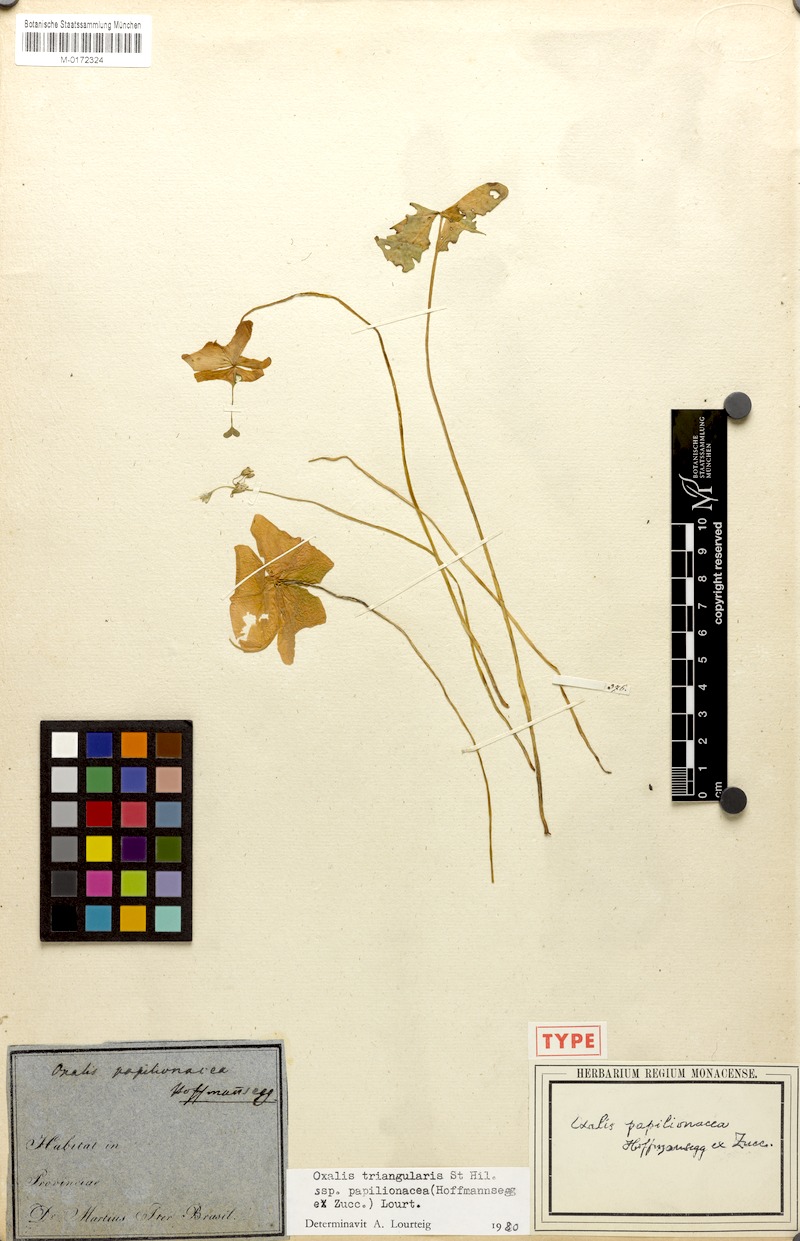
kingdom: Plantae
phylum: Tracheophyta
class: Magnoliopsida
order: Oxalidales
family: Oxalidaceae
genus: Oxalis
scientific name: Oxalis triangularis
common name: Wood sorrel
